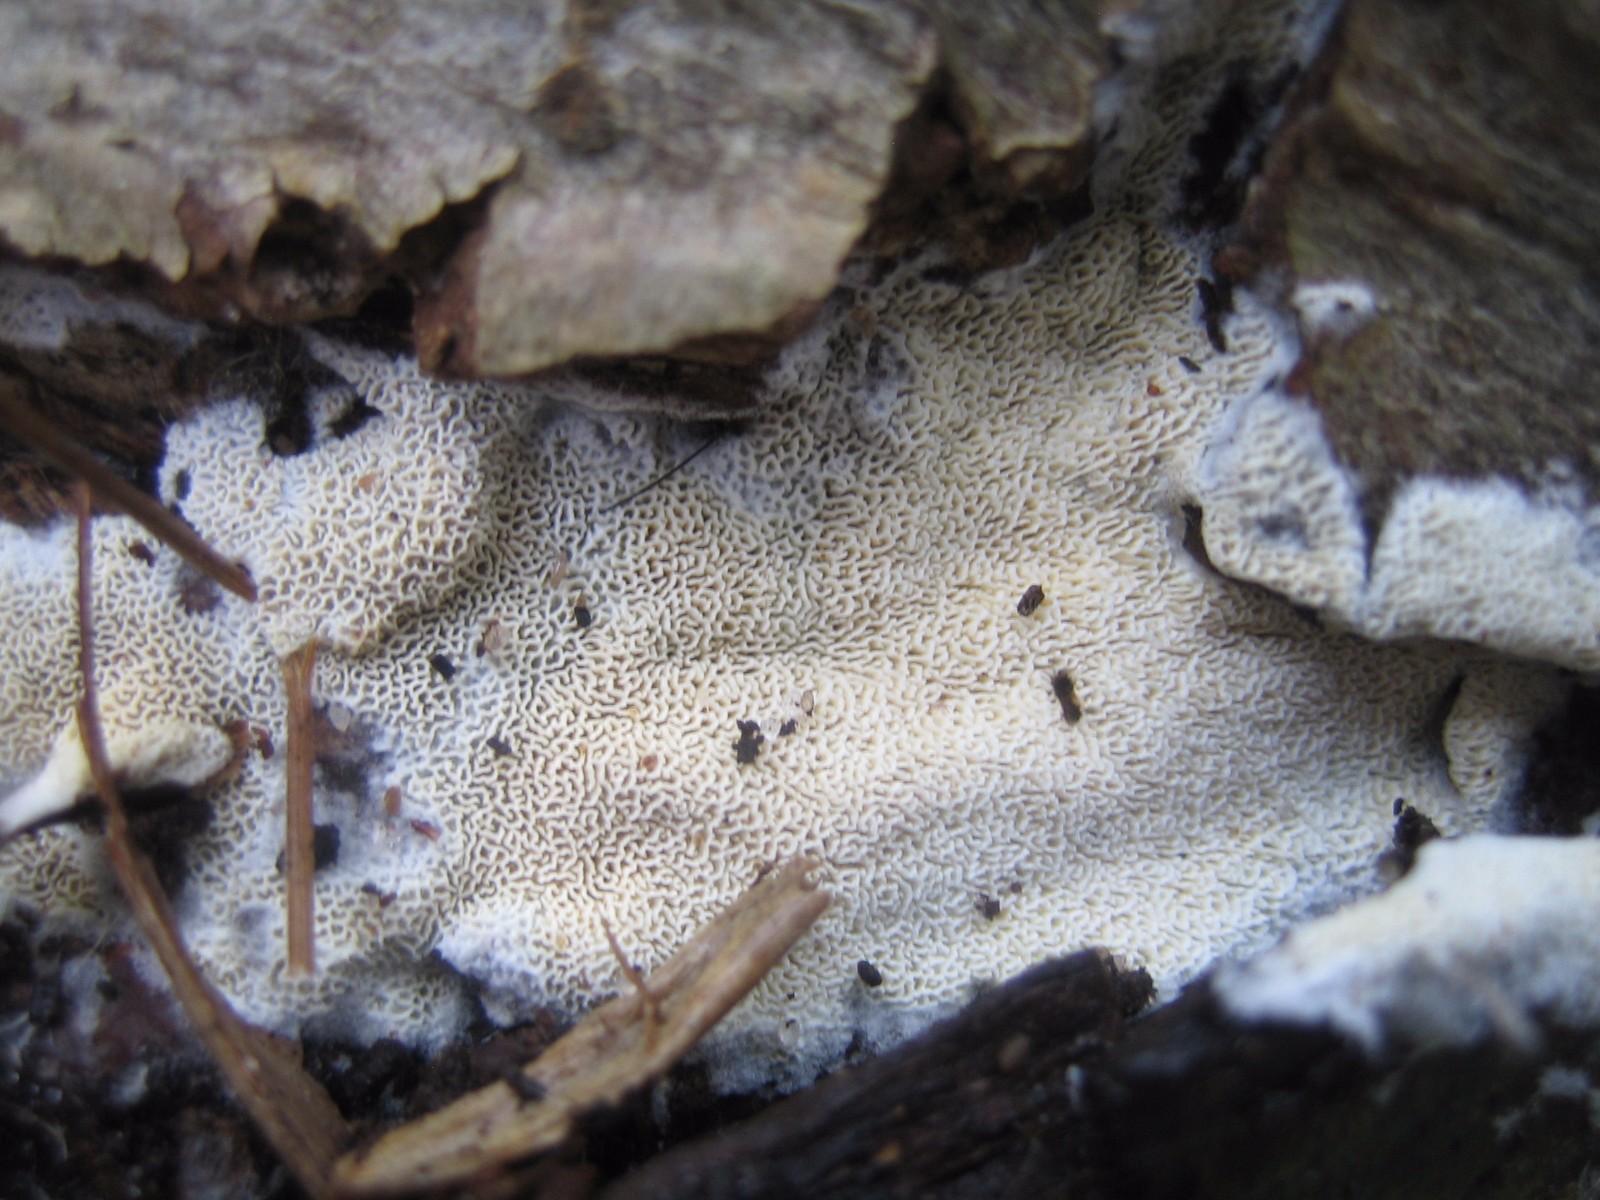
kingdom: Fungi
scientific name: Fungi
